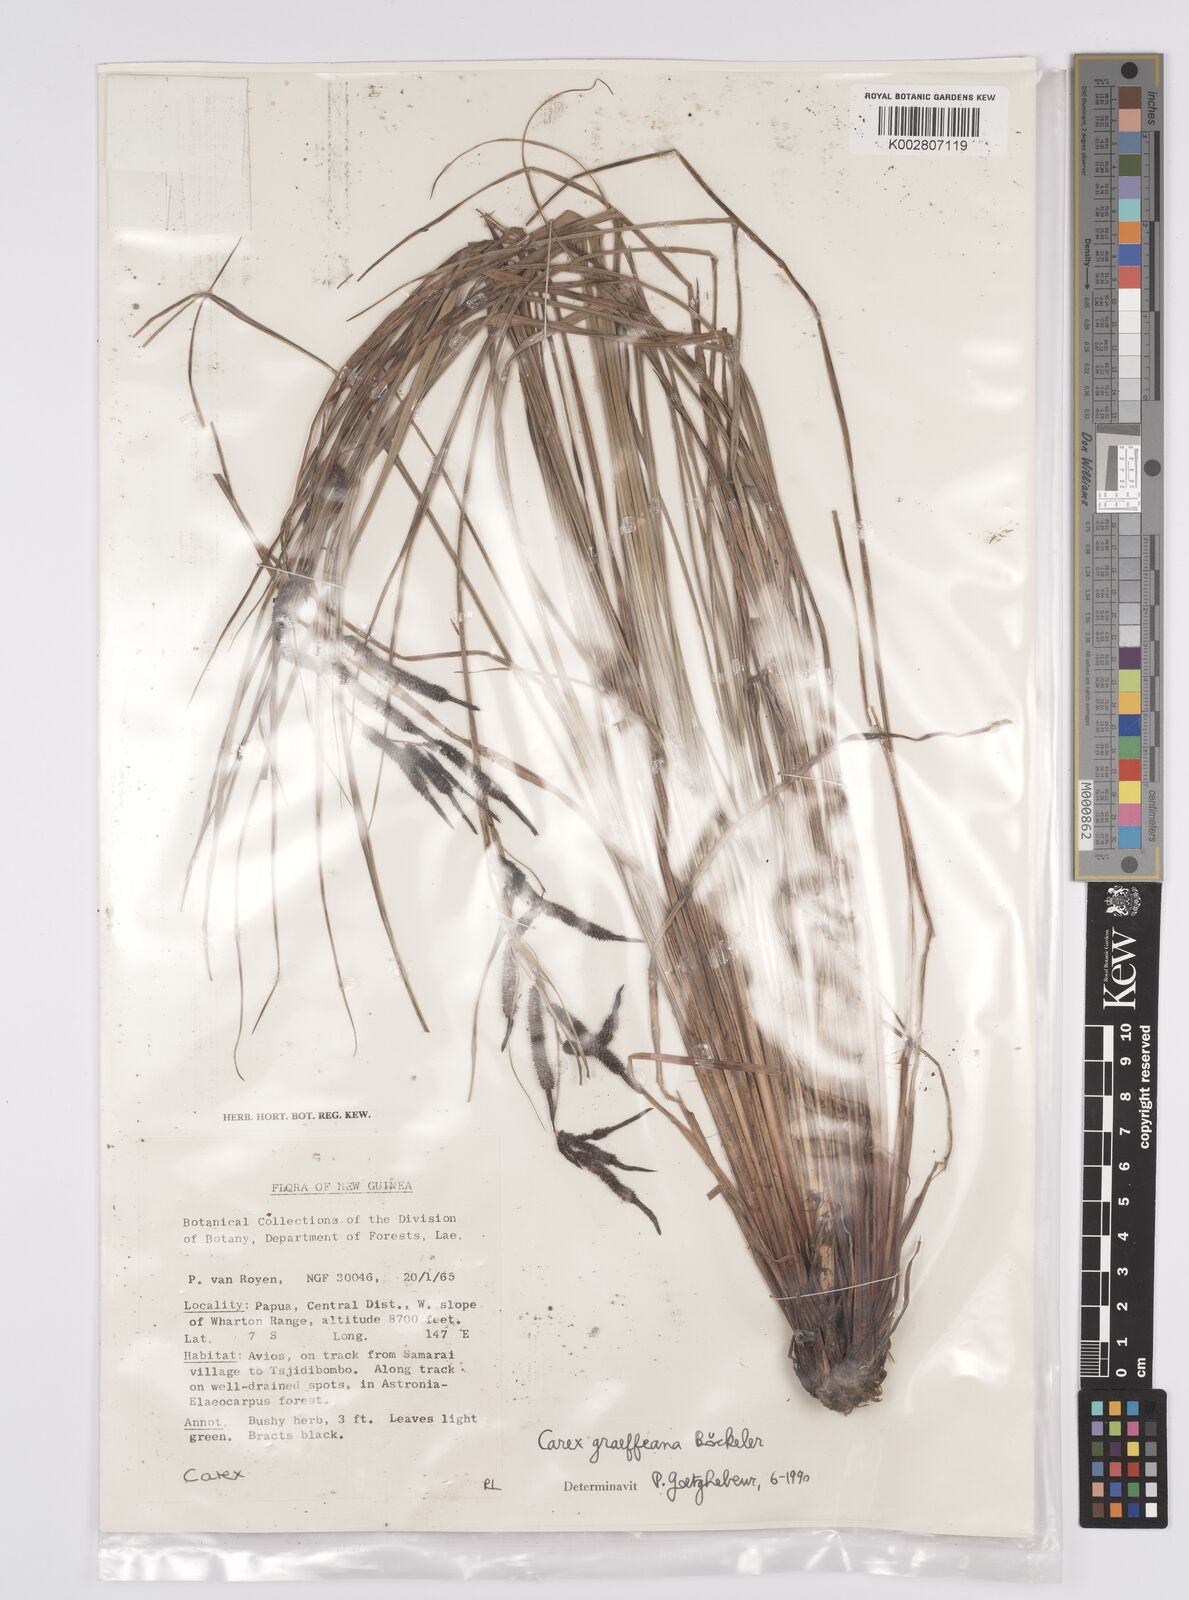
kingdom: Plantae
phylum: Tracheophyta
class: Liliopsida
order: Poales
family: Cyperaceae
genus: Carex
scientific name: Carex graeffeana
